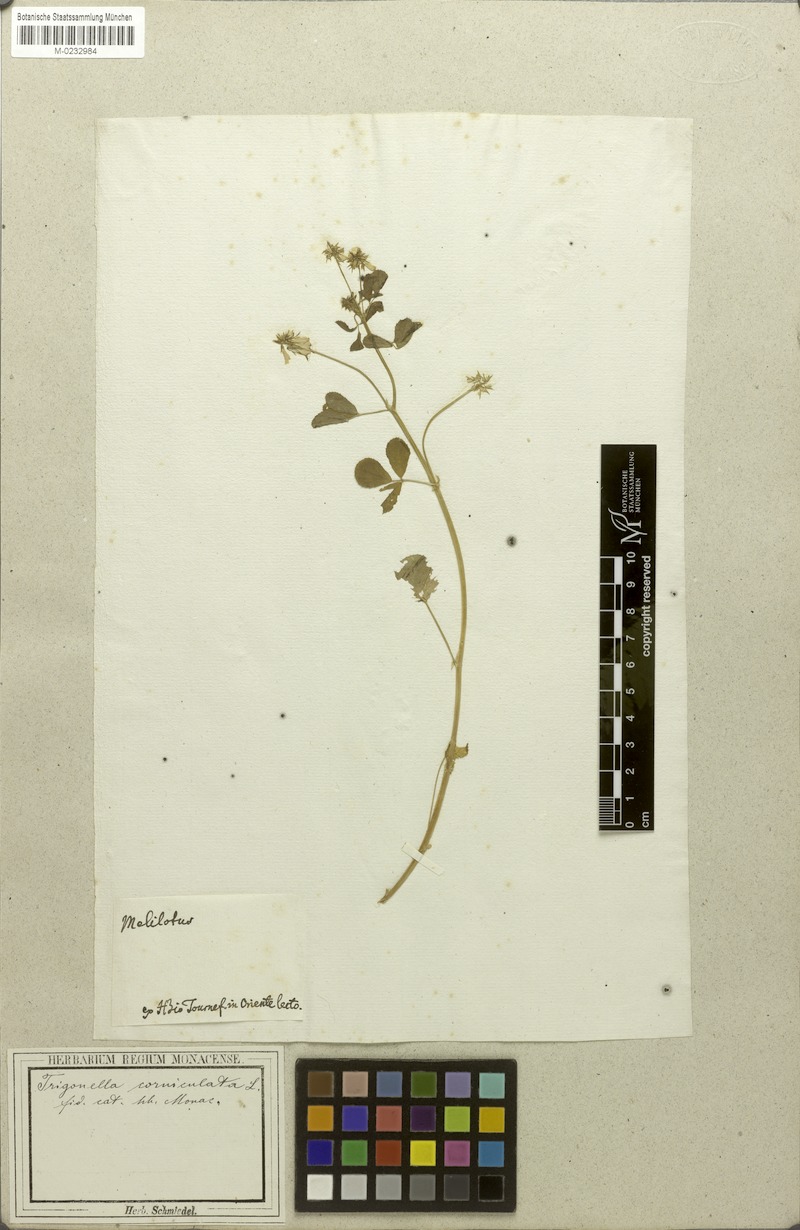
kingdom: Plantae
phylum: Tracheophyta
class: Magnoliopsida
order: Fabales
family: Fabaceae
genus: Trigonella
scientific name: Trigonella balansae
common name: Sickle-fruited fenugreek
